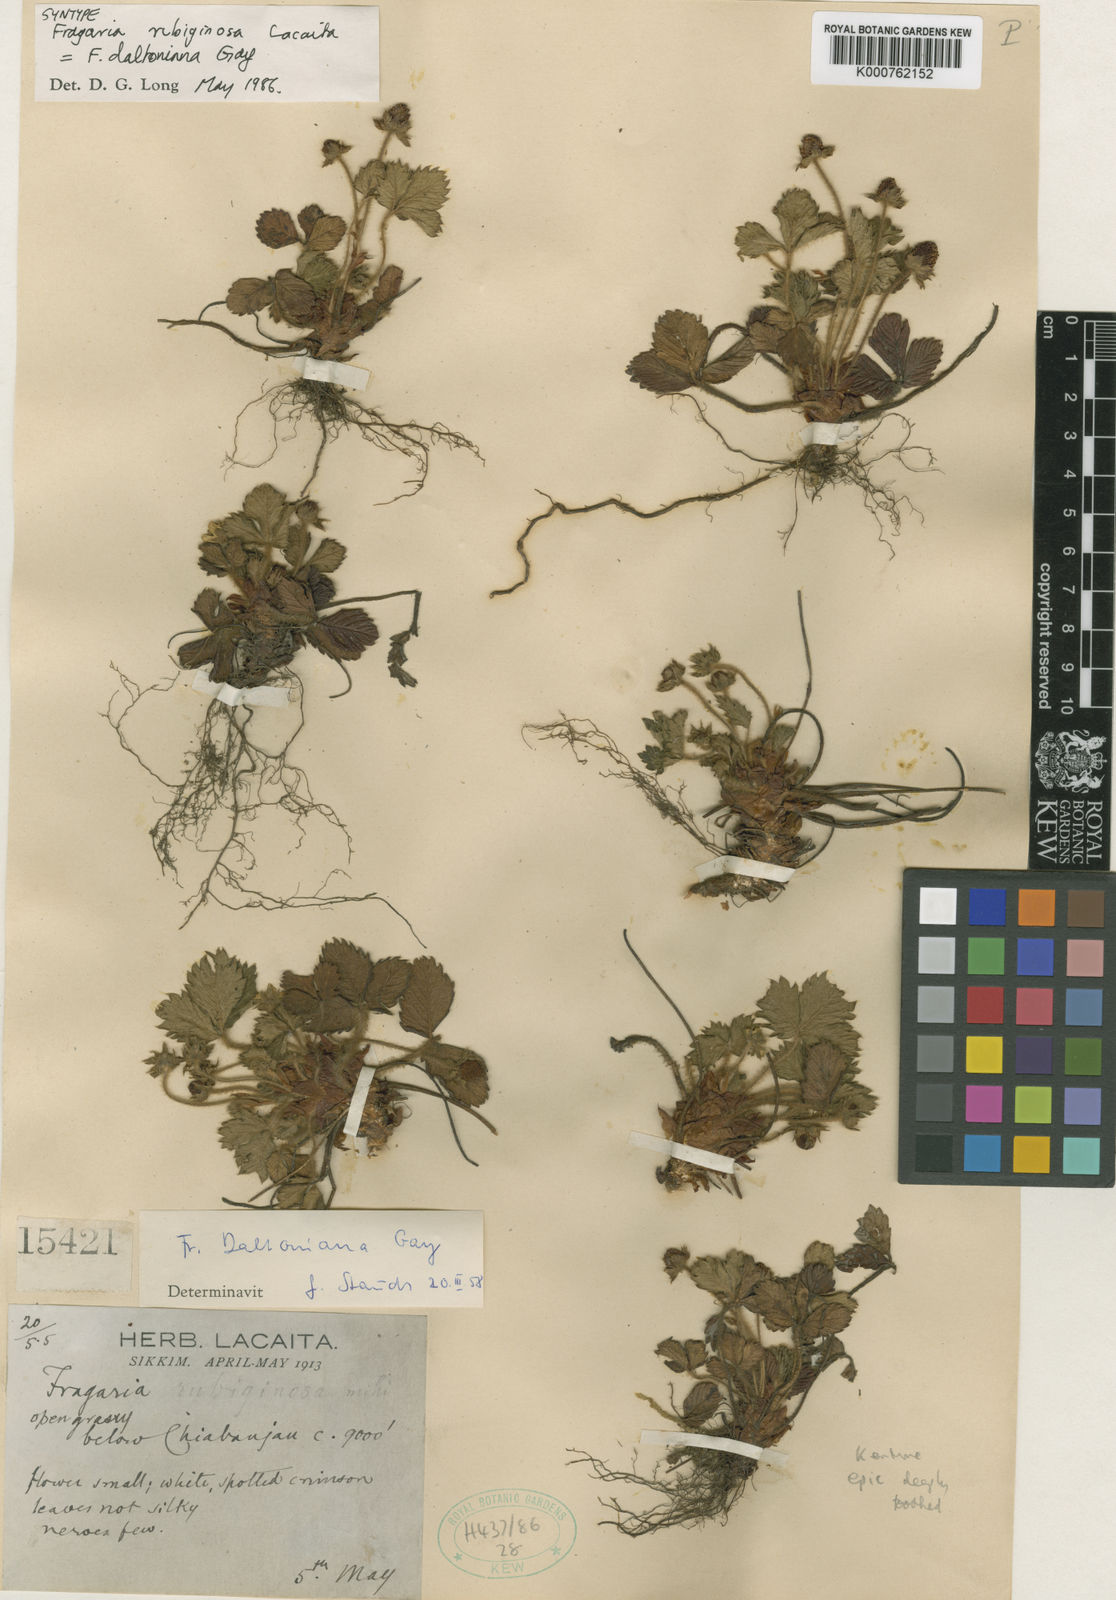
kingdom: Plantae
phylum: Tracheophyta
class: Magnoliopsida
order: Rosales
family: Rosaceae
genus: Fragaria
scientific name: Fragaria vesca
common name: Wild strawberry
